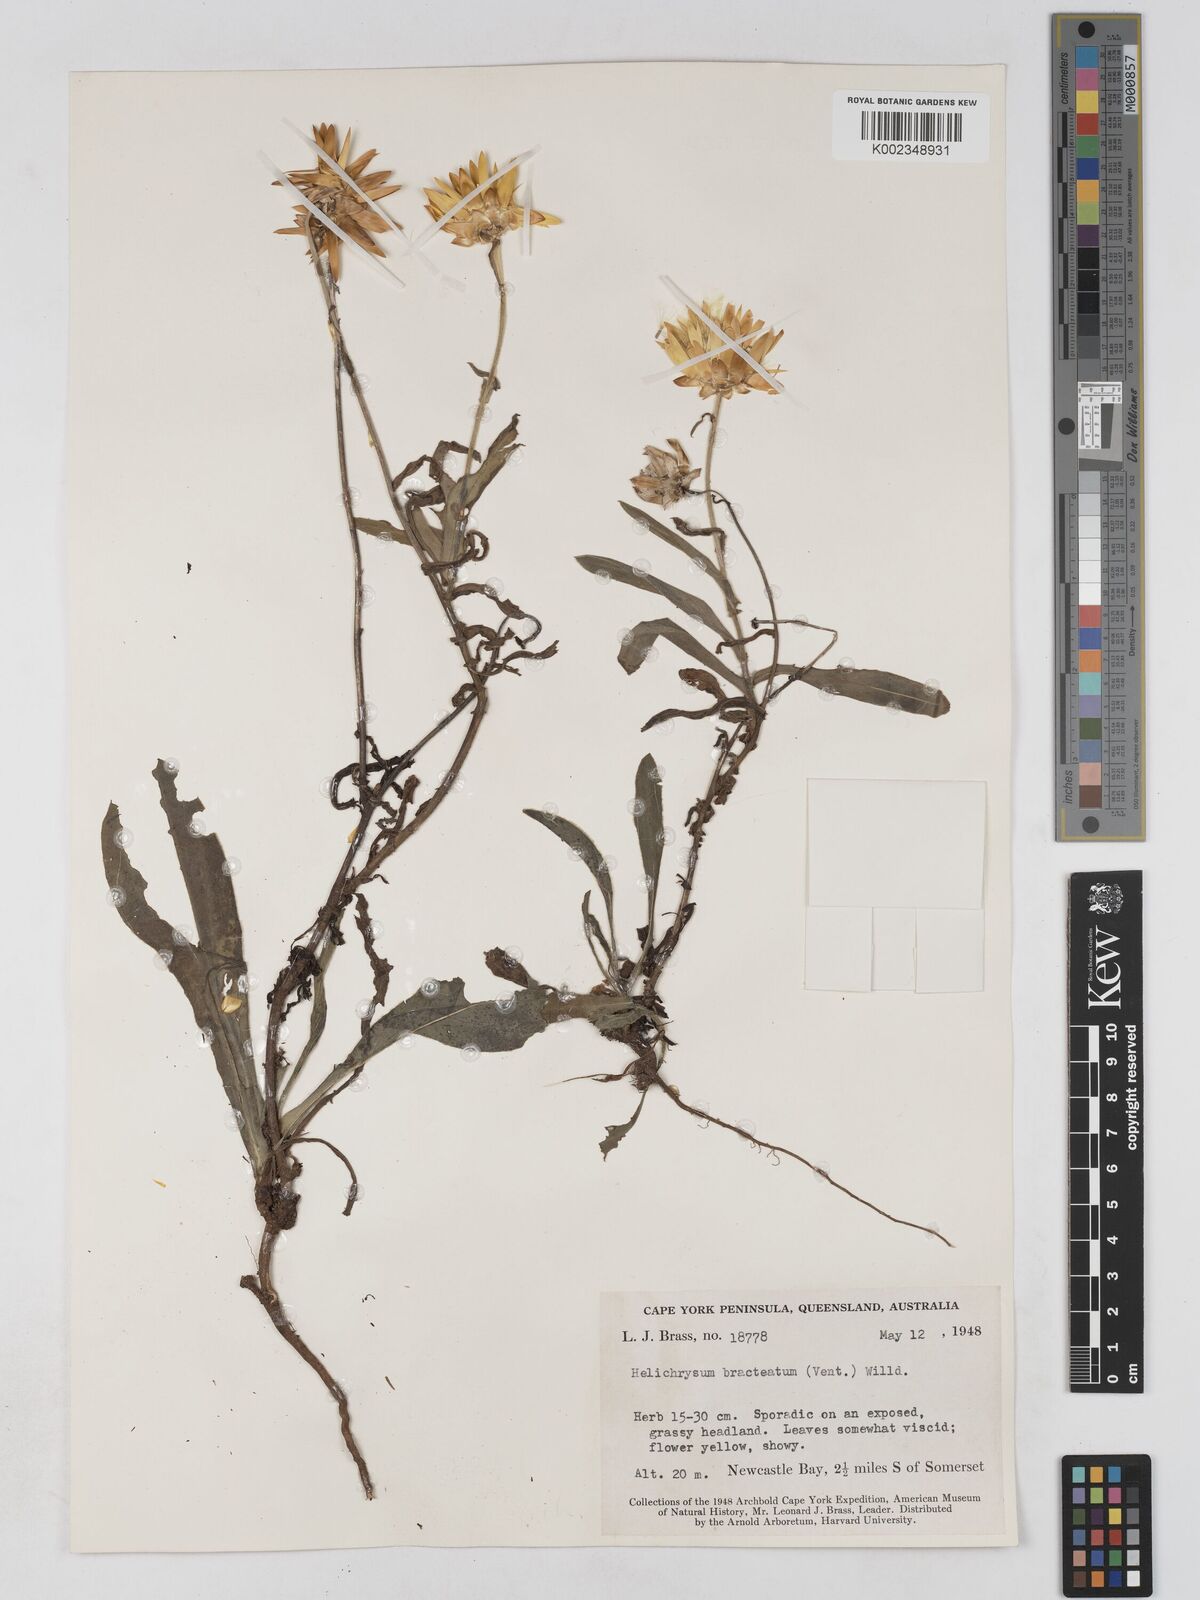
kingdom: Plantae
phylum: Tracheophyta
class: Magnoliopsida
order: Asterales
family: Asteraceae
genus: Xerochrysum
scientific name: Xerochrysum bracteatum
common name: Bracted strawflower
